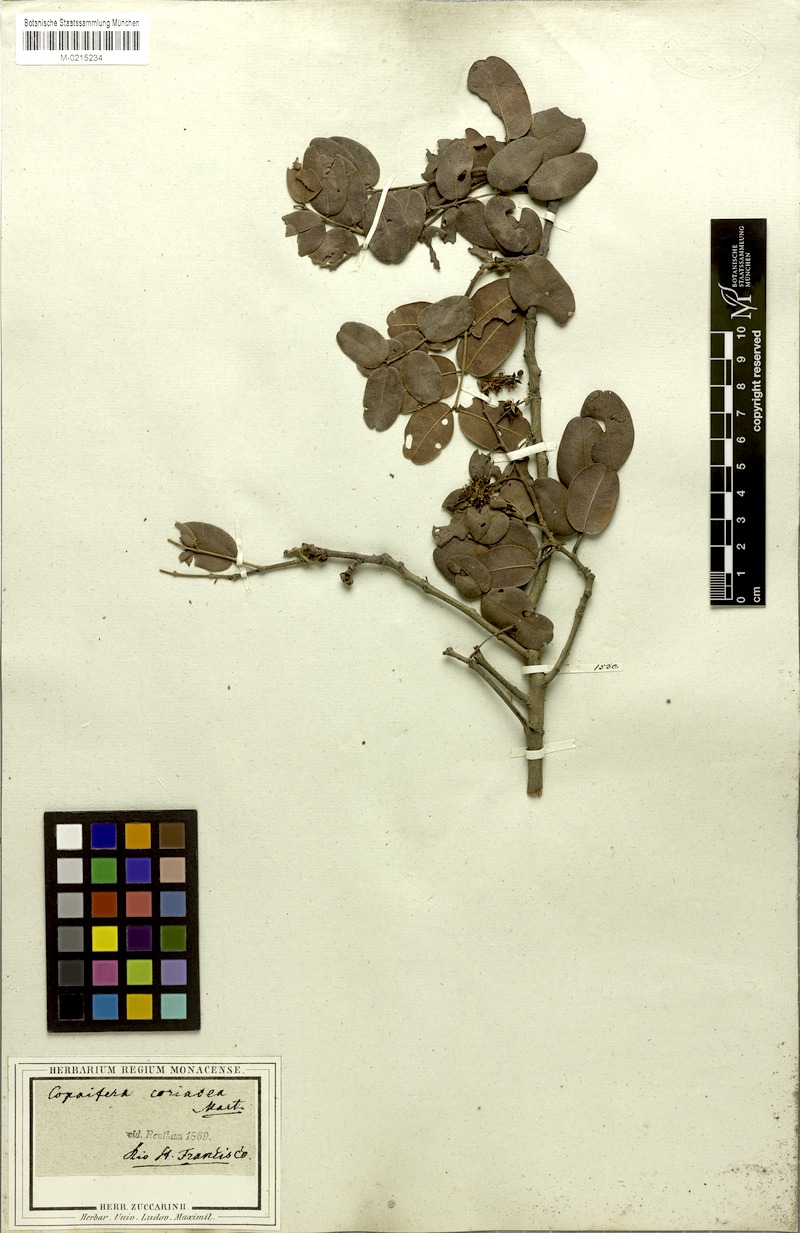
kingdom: Plantae
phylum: Tracheophyta
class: Magnoliopsida
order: Fabales
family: Fabaceae
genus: Copaifera
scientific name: Copaifera coriacea
